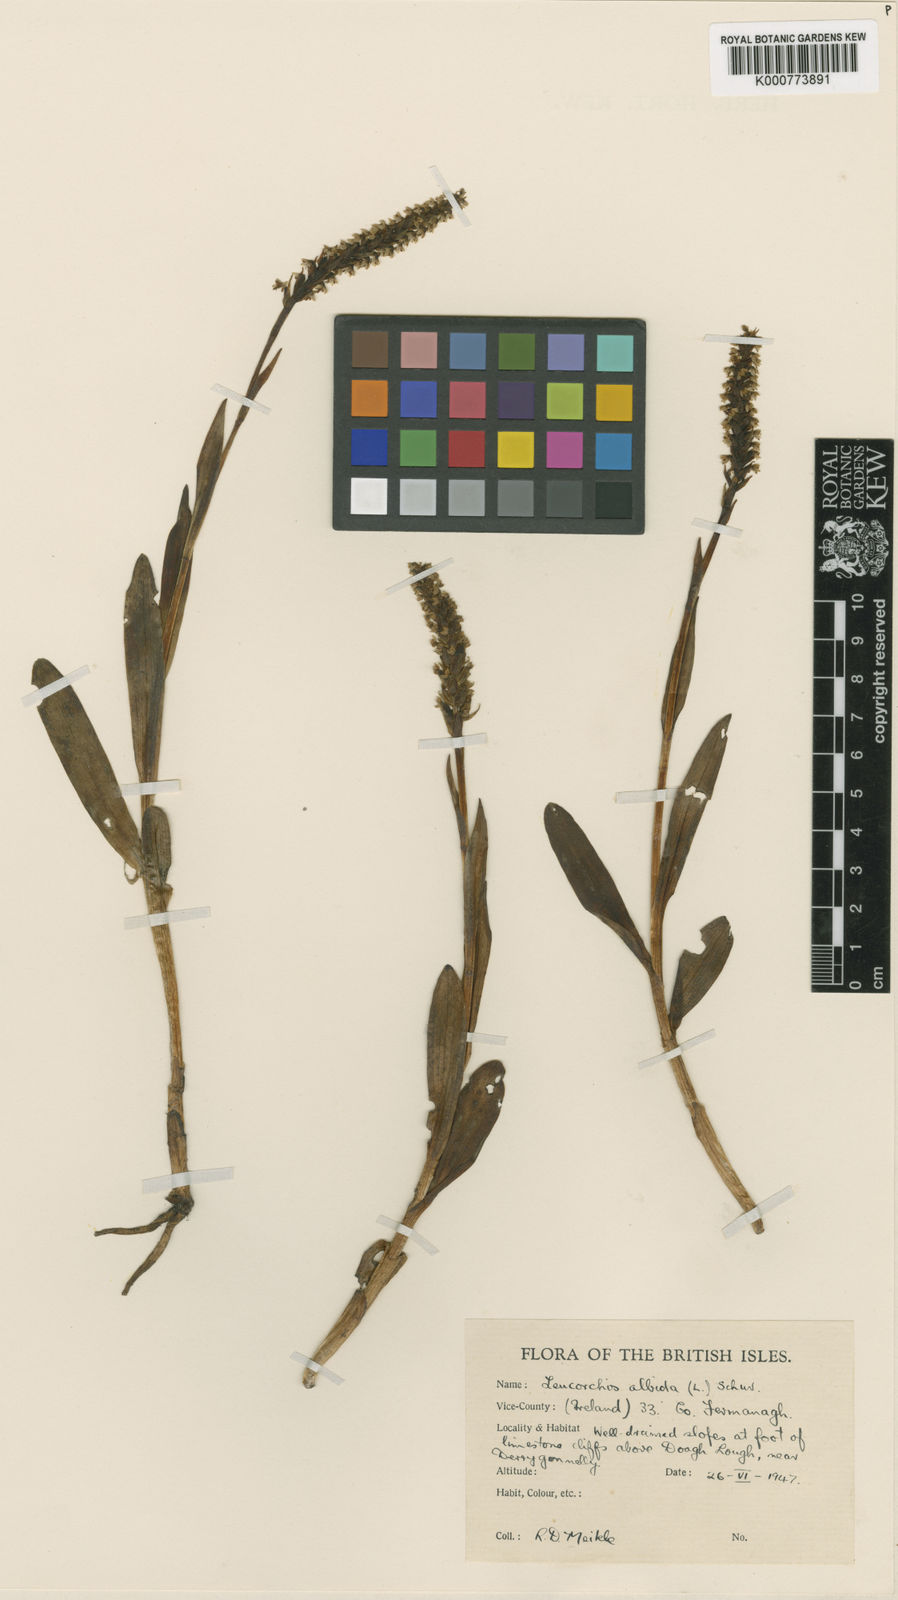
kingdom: Plantae
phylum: Tracheophyta
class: Liliopsida
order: Asparagales
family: Orchidaceae
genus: Pseudorchis
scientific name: Pseudorchis
